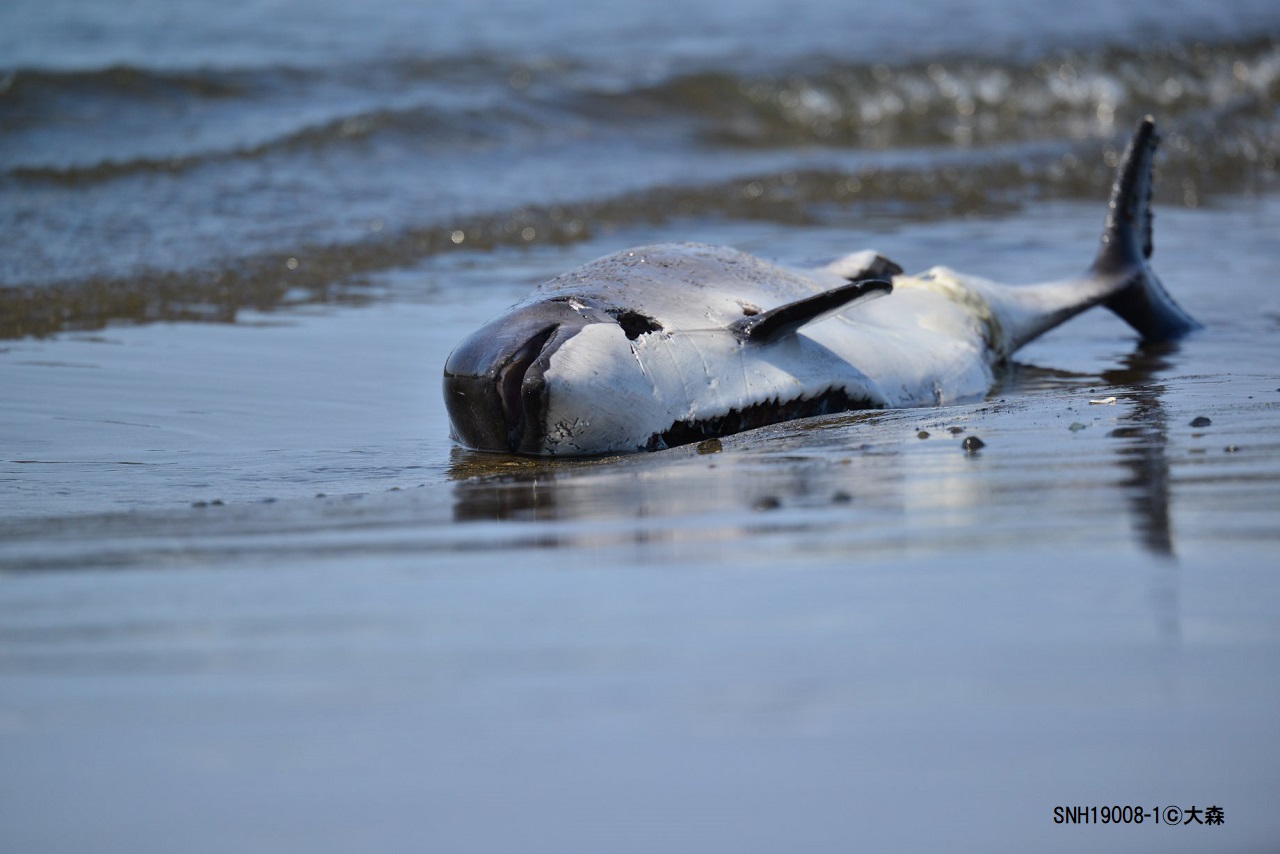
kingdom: Animalia
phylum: Chordata
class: Mammalia
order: Cetacea
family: Phocoenidae
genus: Phocoena
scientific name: Phocoena phocoena
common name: Harbour porpoise
